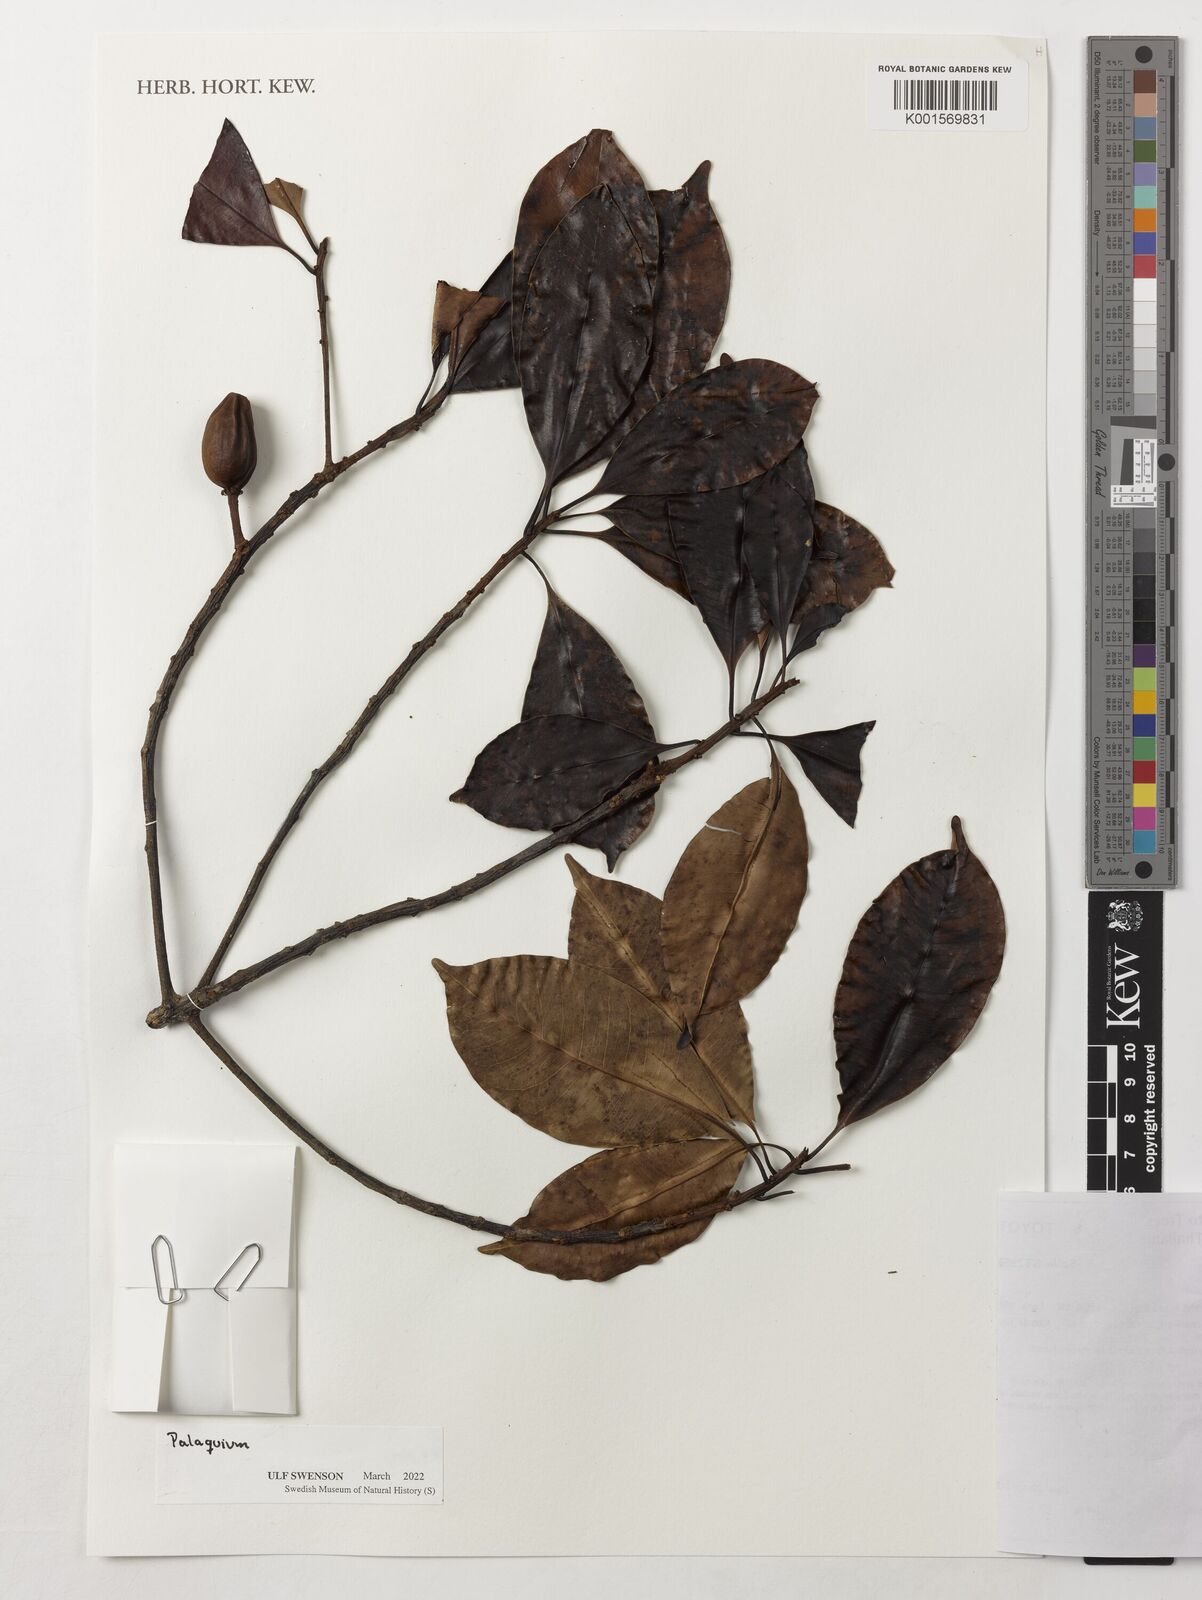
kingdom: Plantae
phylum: Tracheophyta
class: Magnoliopsida
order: Ericales
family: Sapotaceae
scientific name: Sapotaceae
